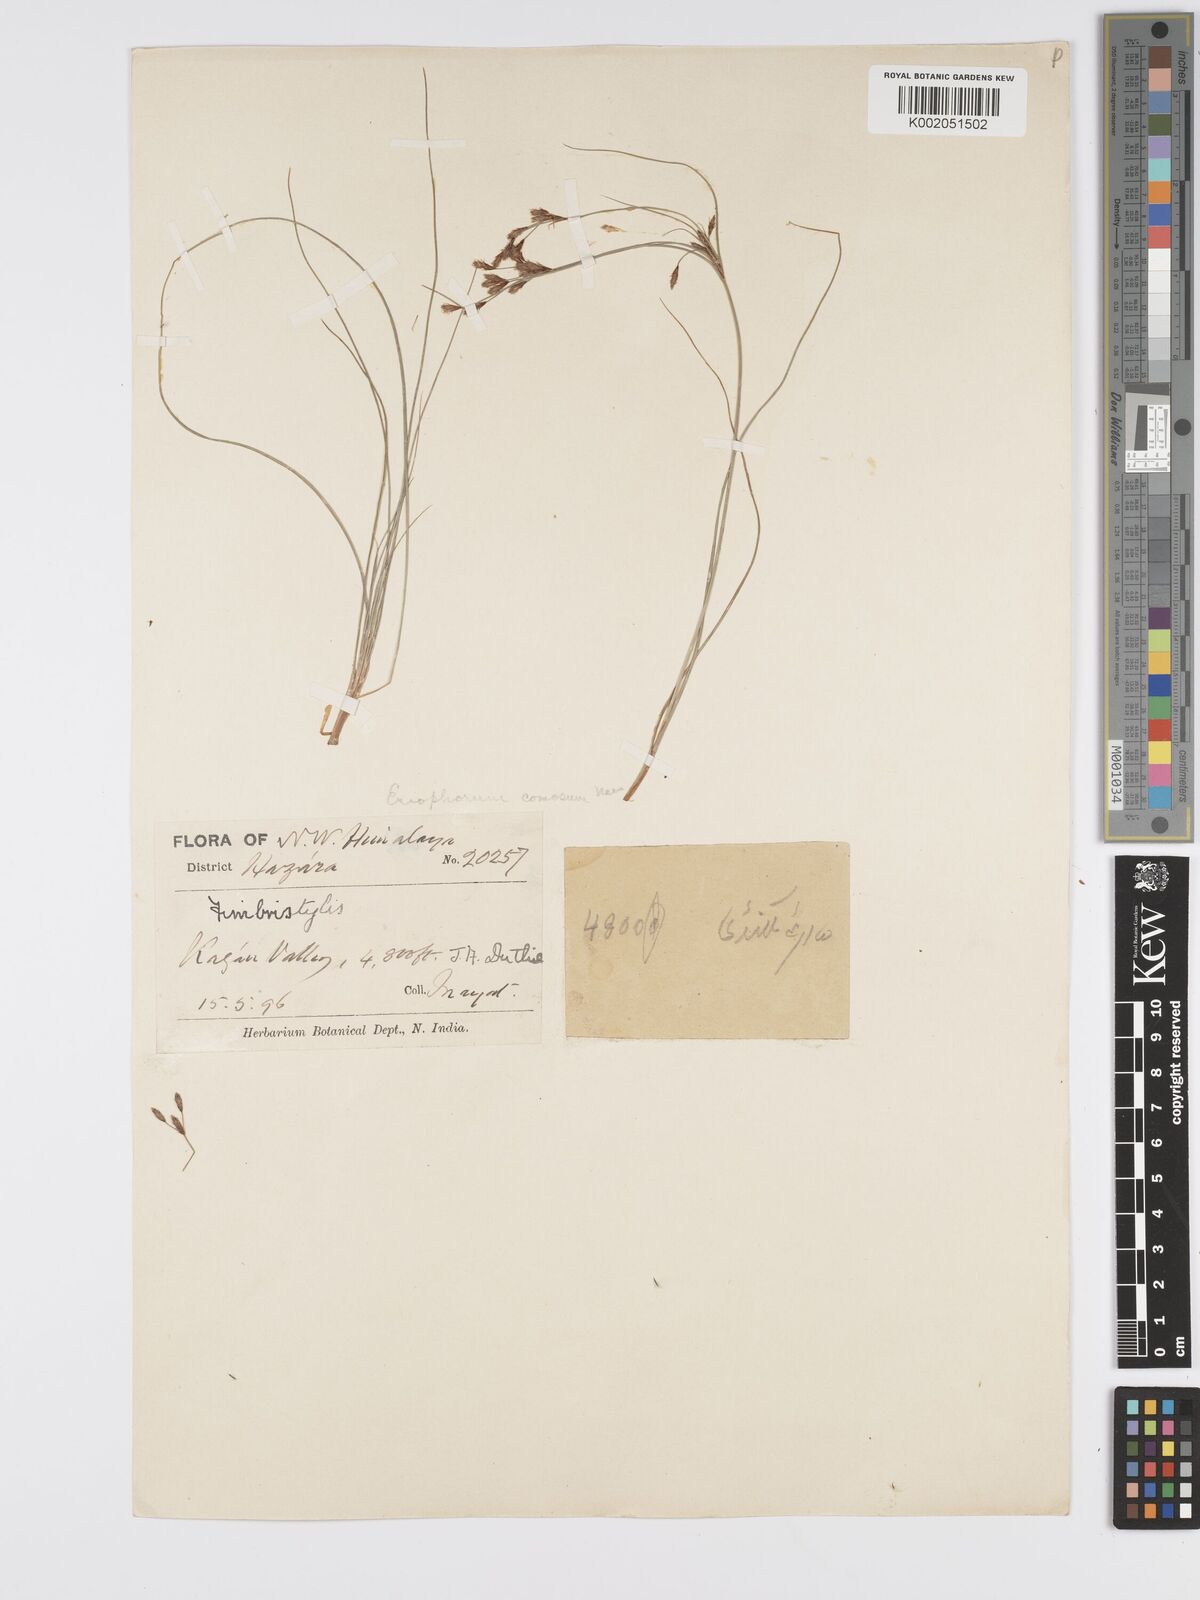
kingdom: Plantae
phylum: Tracheophyta
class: Liliopsida
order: Poales
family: Cyperaceae
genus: Erioscirpus
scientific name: Erioscirpus comosus
